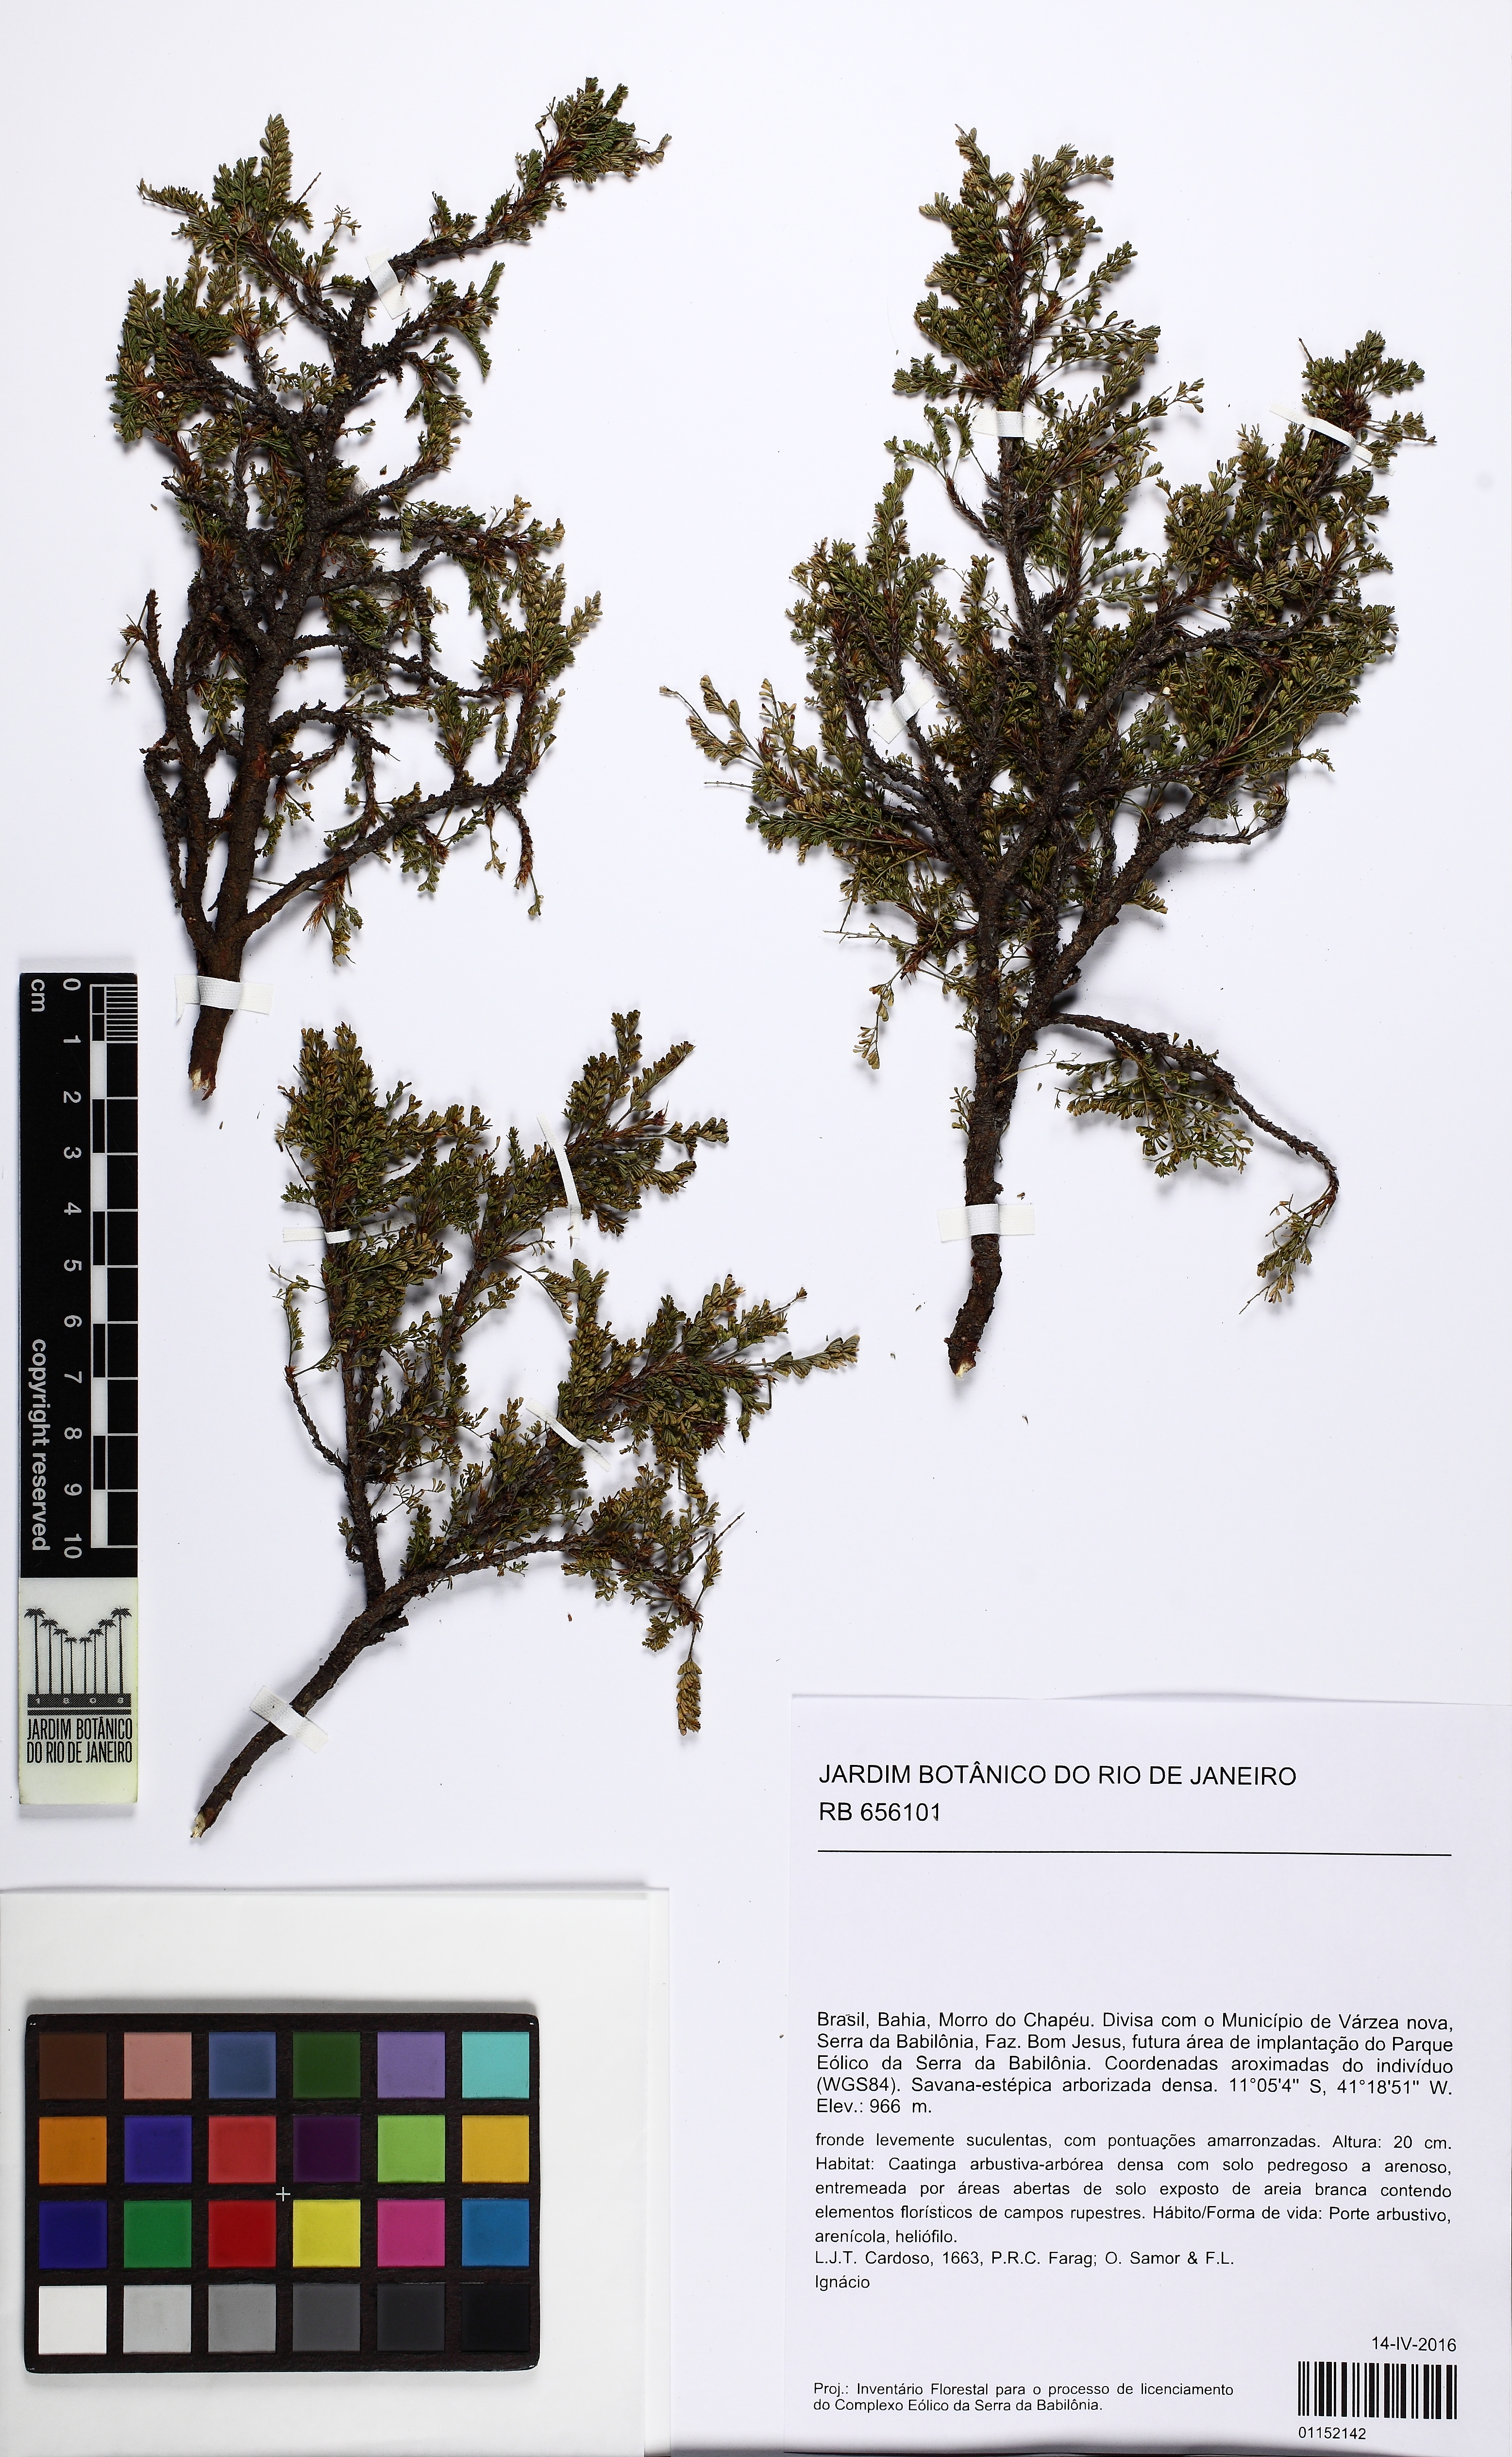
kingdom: Plantae
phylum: Tracheophyta
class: Magnoliopsida
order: Fabales
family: Fabaceae
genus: Mimosa
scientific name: Mimosa blanchetii
